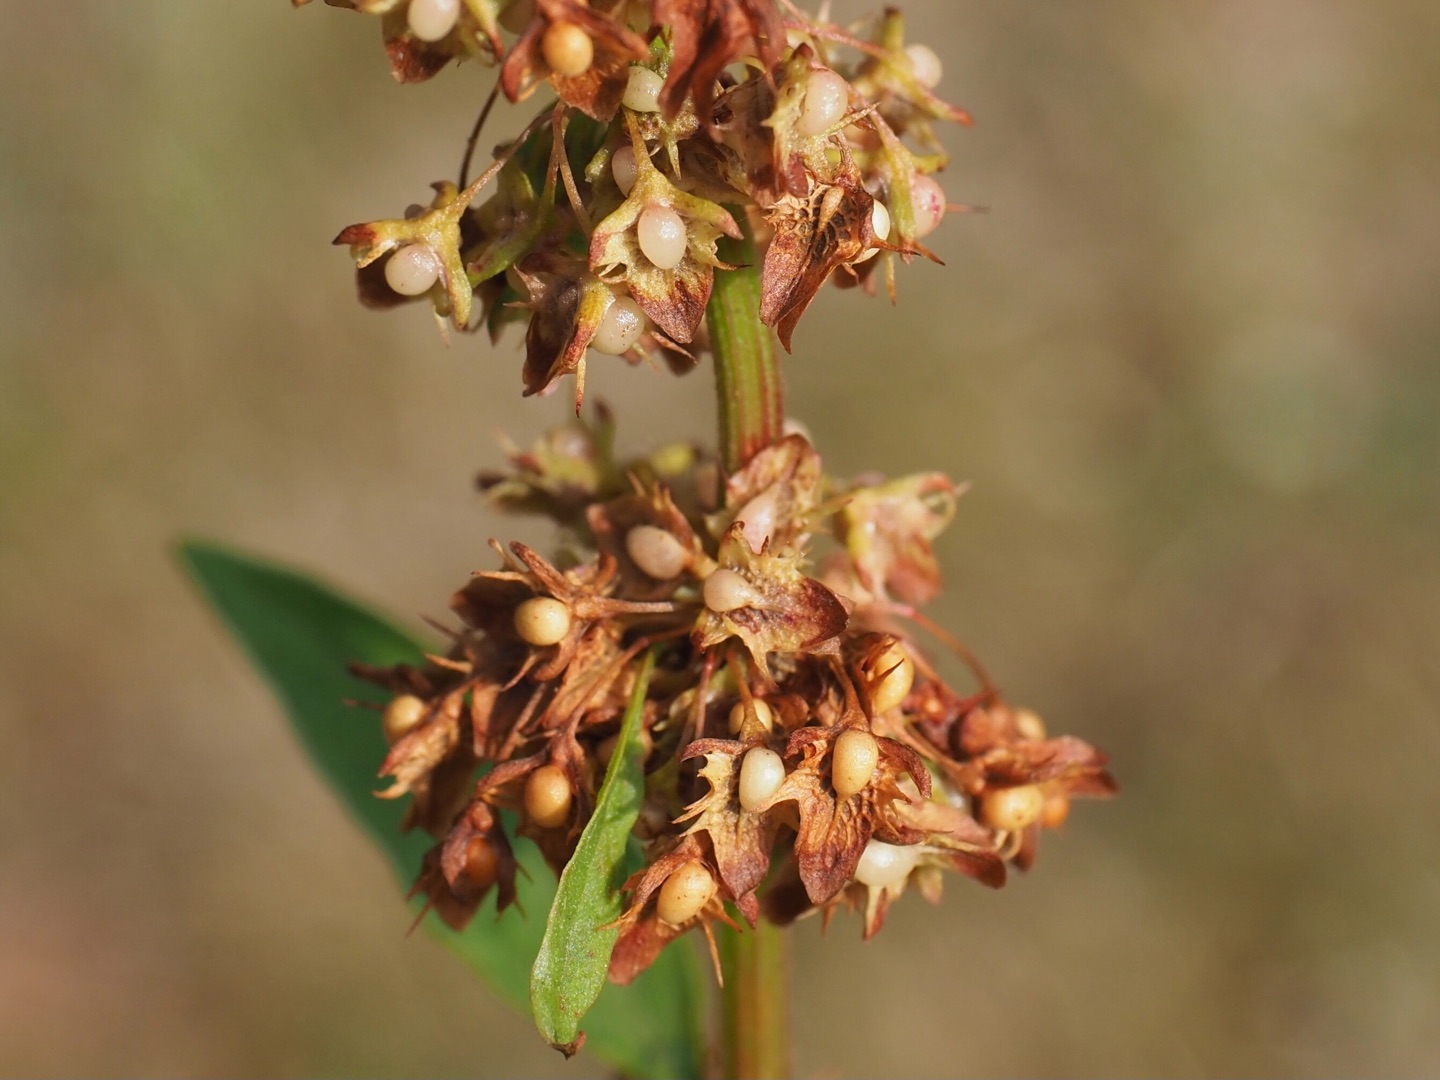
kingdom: Plantae
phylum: Tracheophyta
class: Magnoliopsida
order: Caryophyllales
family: Polygonaceae
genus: Rumex
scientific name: Rumex obtusifolius
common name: Butbladet skræppe
